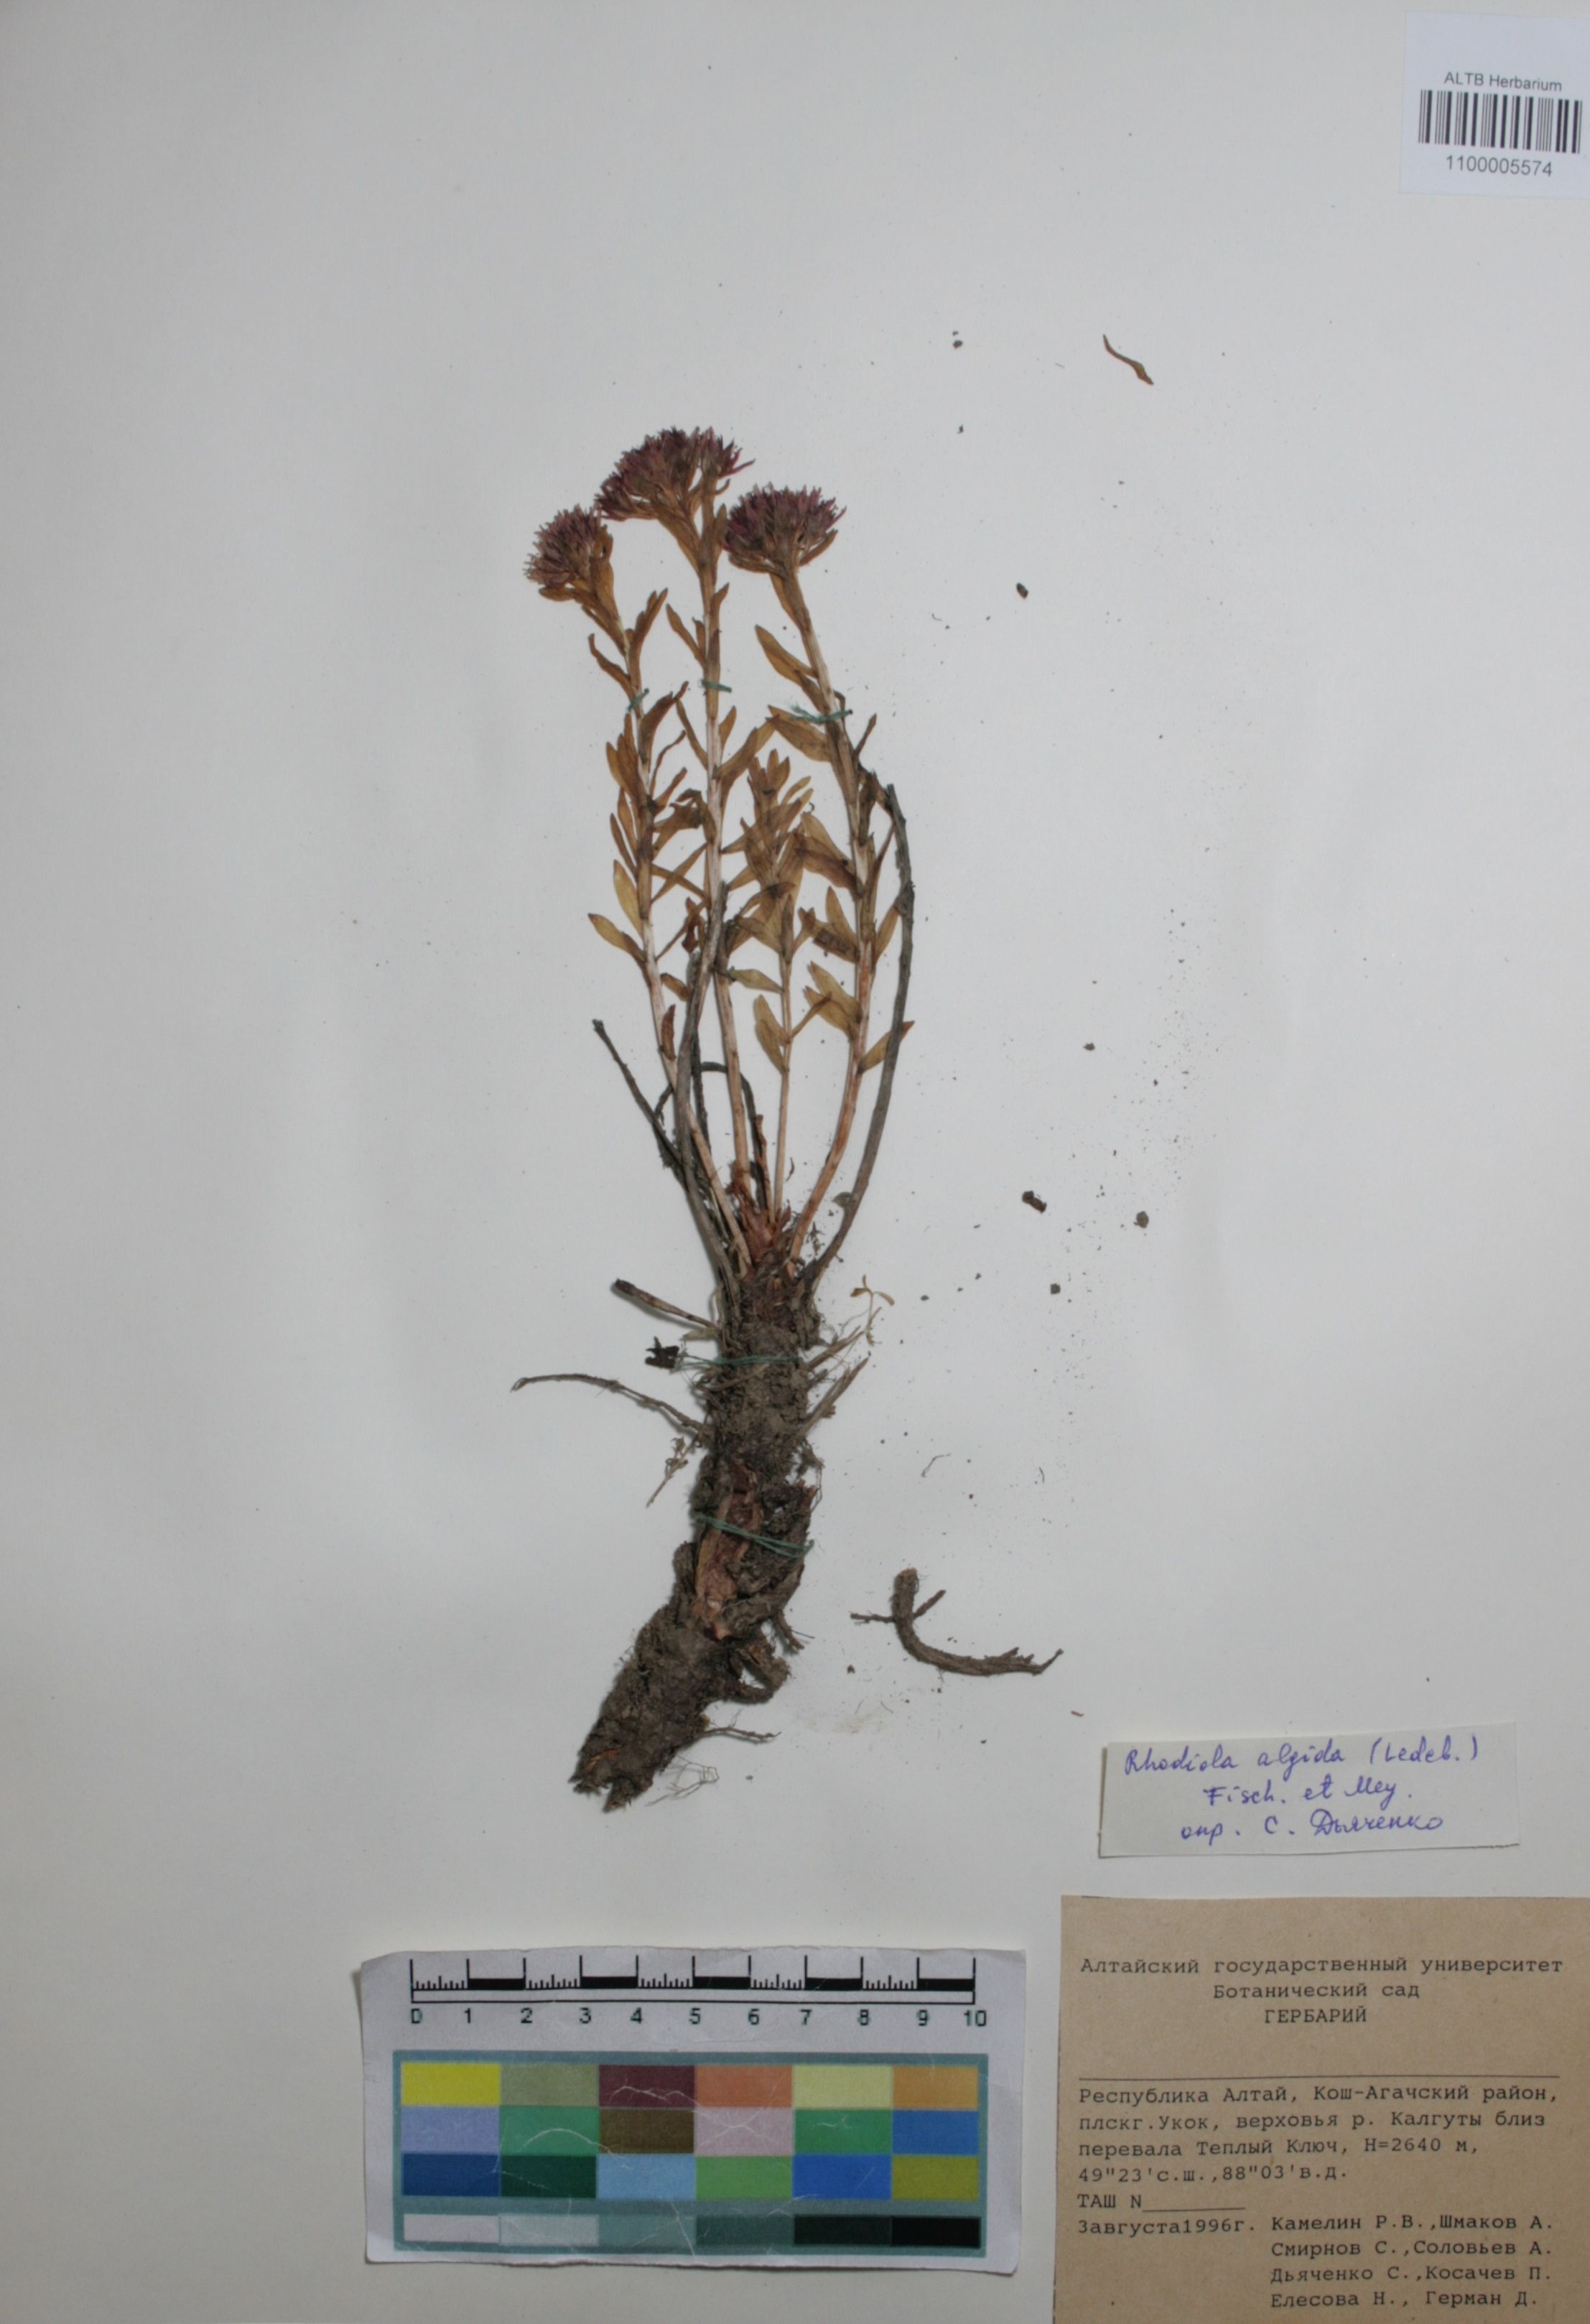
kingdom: Plantae
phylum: Tracheophyta
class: Magnoliopsida
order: Saxifragales
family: Crassulaceae
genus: Rhodiola
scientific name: Rhodiola algida
